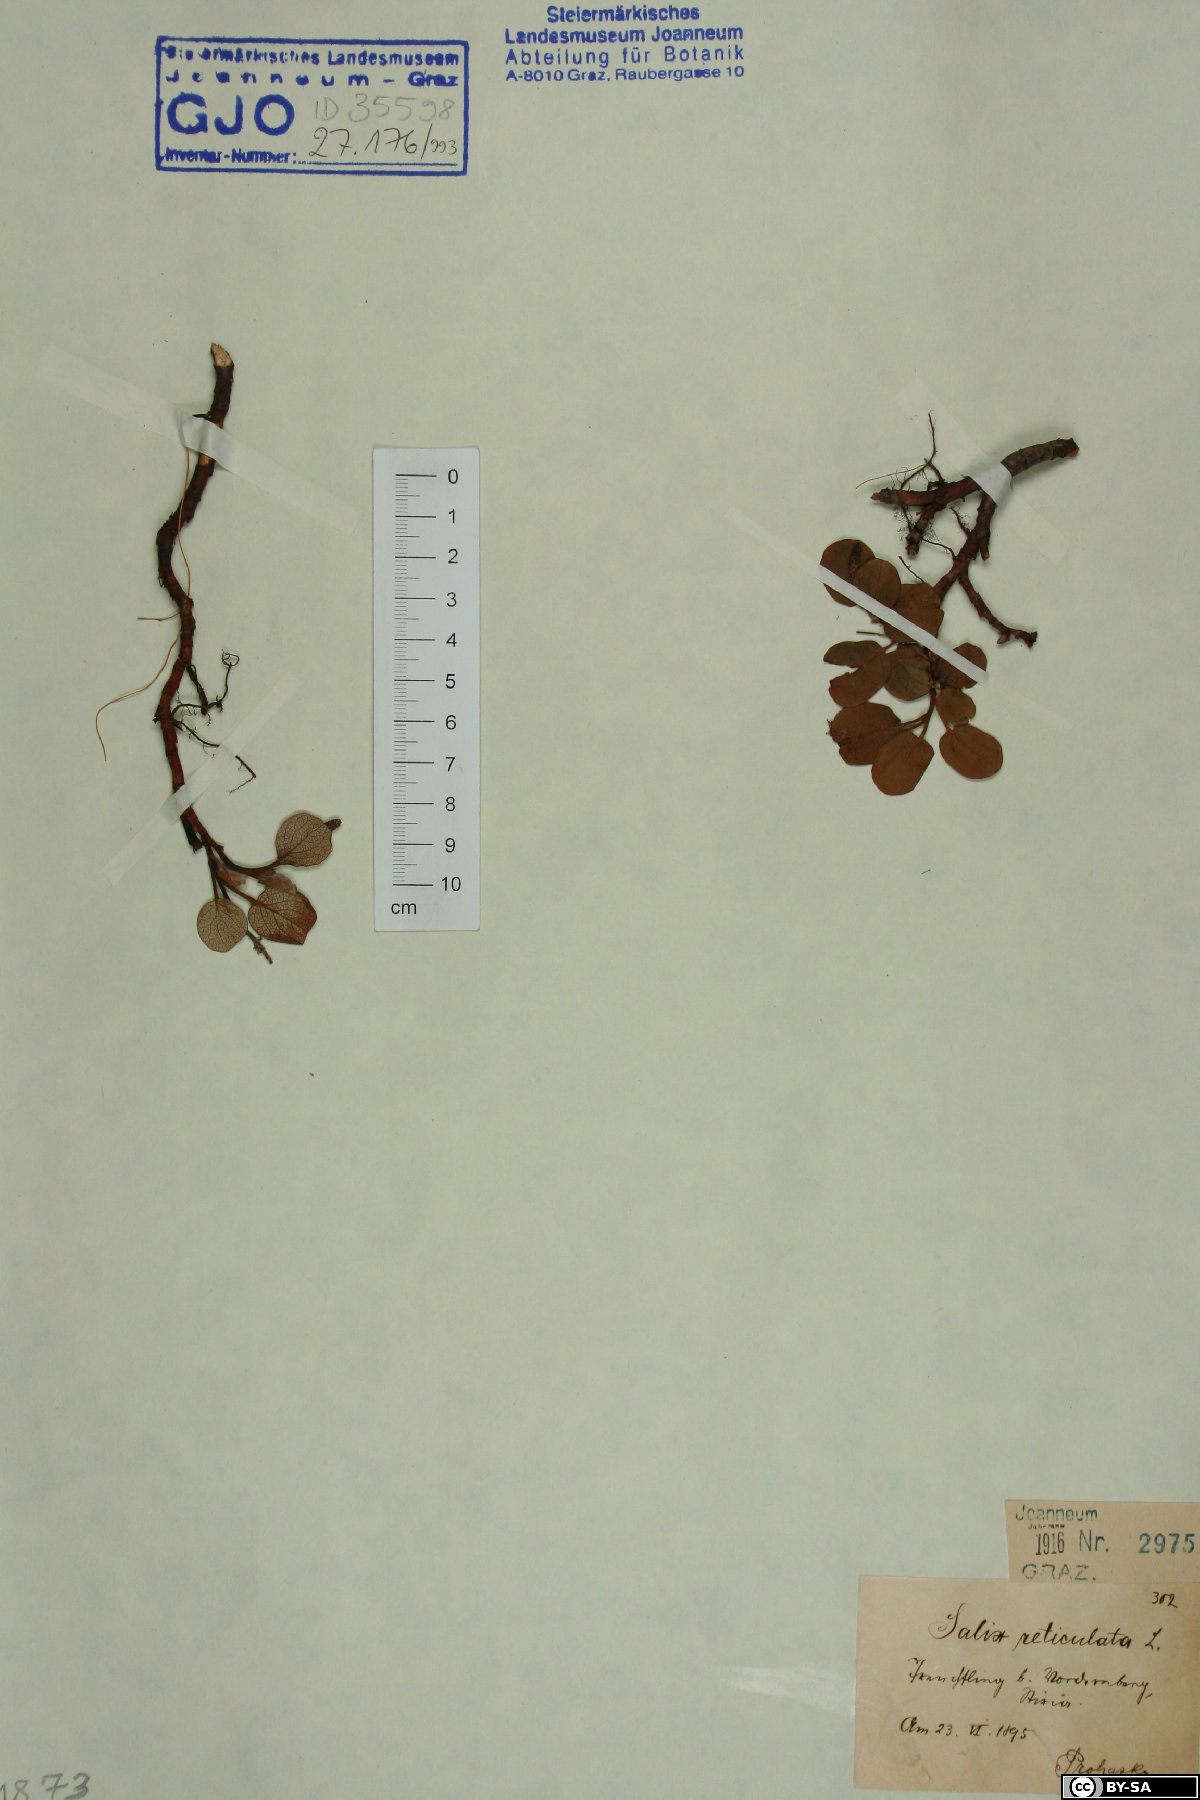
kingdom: Plantae
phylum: Tracheophyta
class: Magnoliopsida
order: Malpighiales
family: Salicaceae
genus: Salix
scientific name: Salix reticulata
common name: Net-leaved willow
